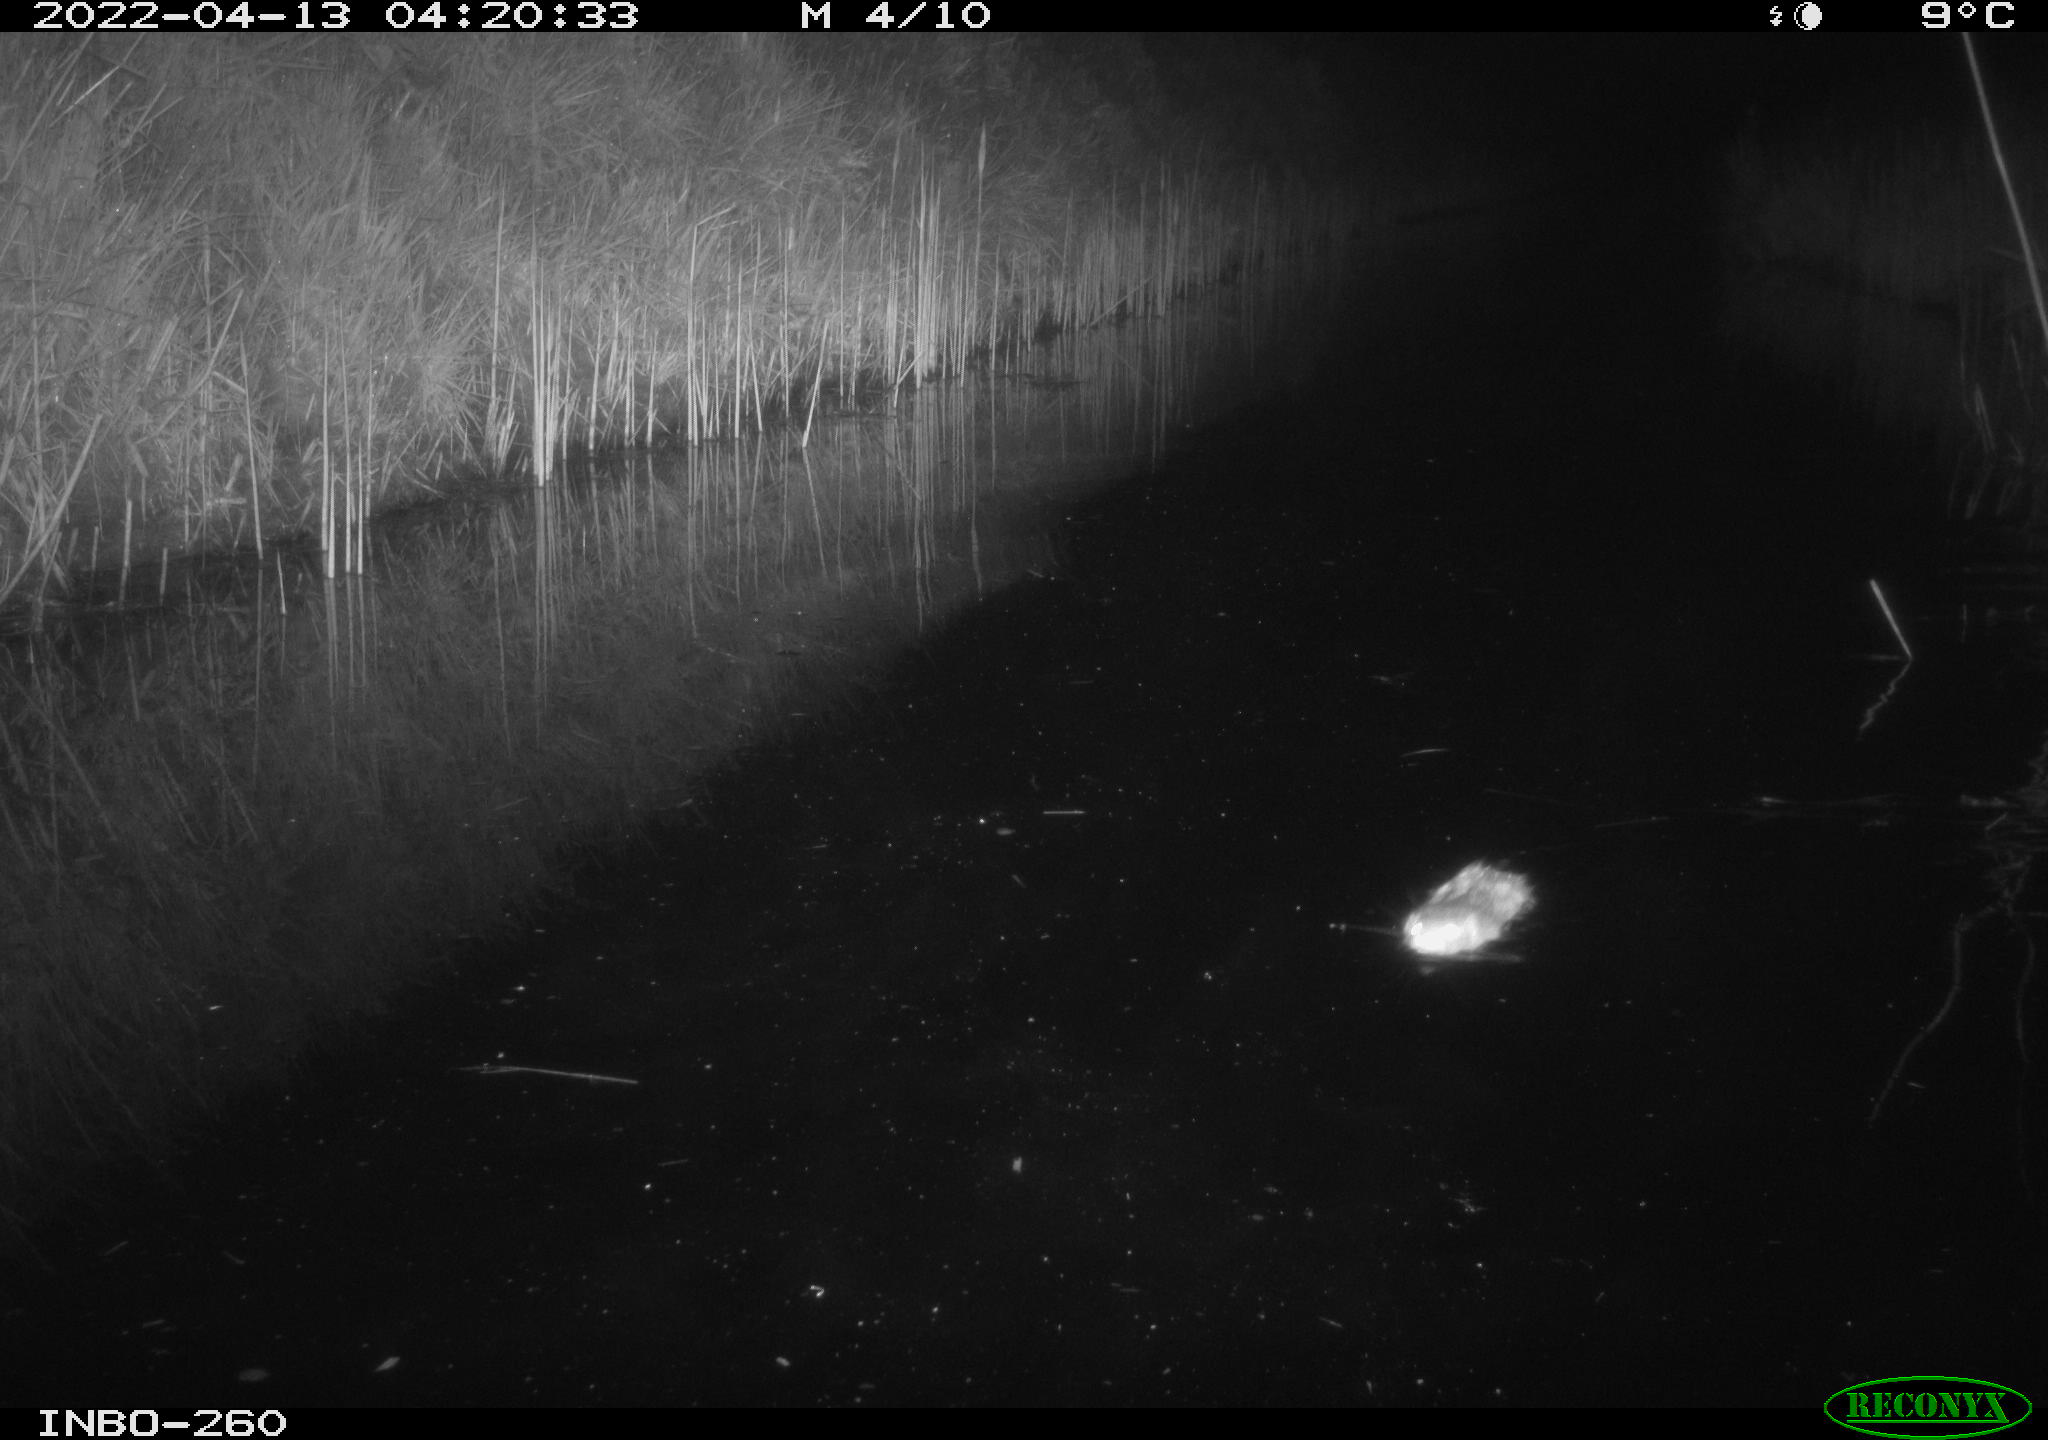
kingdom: Animalia
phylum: Chordata
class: Mammalia
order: Rodentia
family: Cricetidae
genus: Ondatra
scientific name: Ondatra zibethicus
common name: Muskrat
